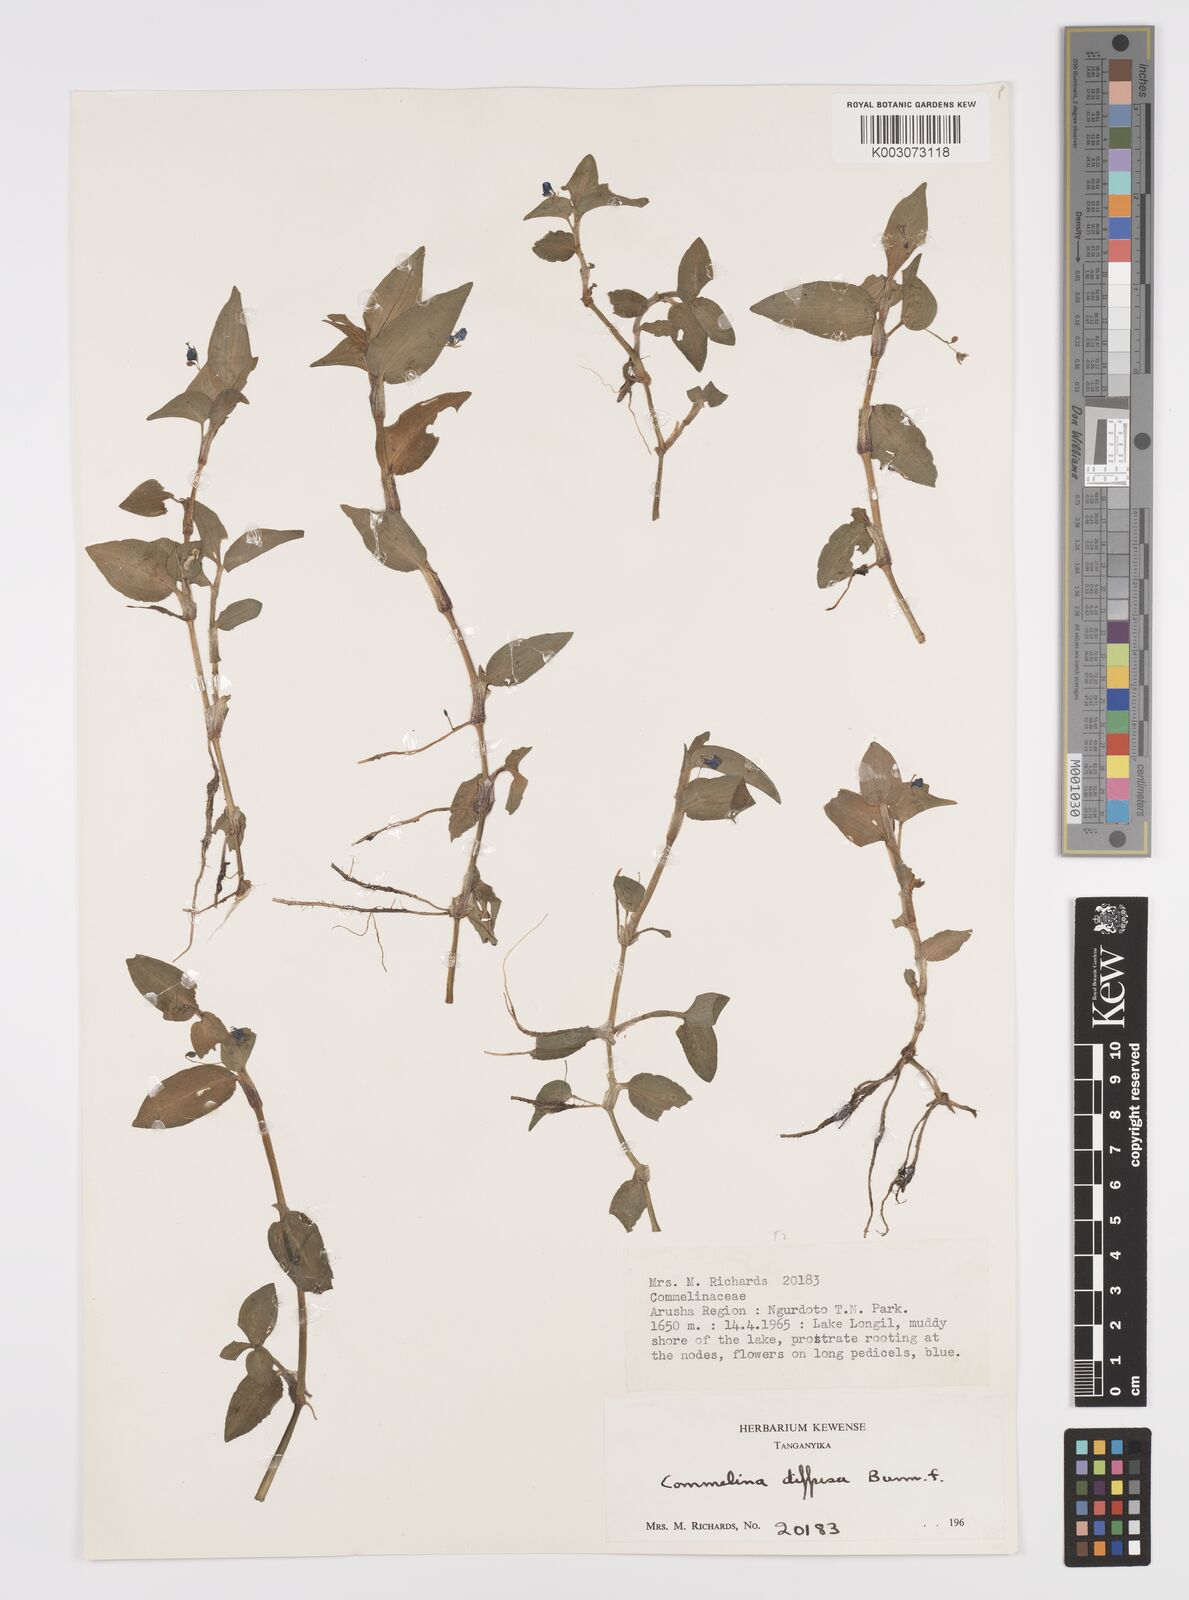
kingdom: Plantae
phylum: Tracheophyta
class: Liliopsida
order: Commelinales
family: Commelinaceae
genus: Commelina
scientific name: Commelina diffusa
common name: Climbing dayflower
